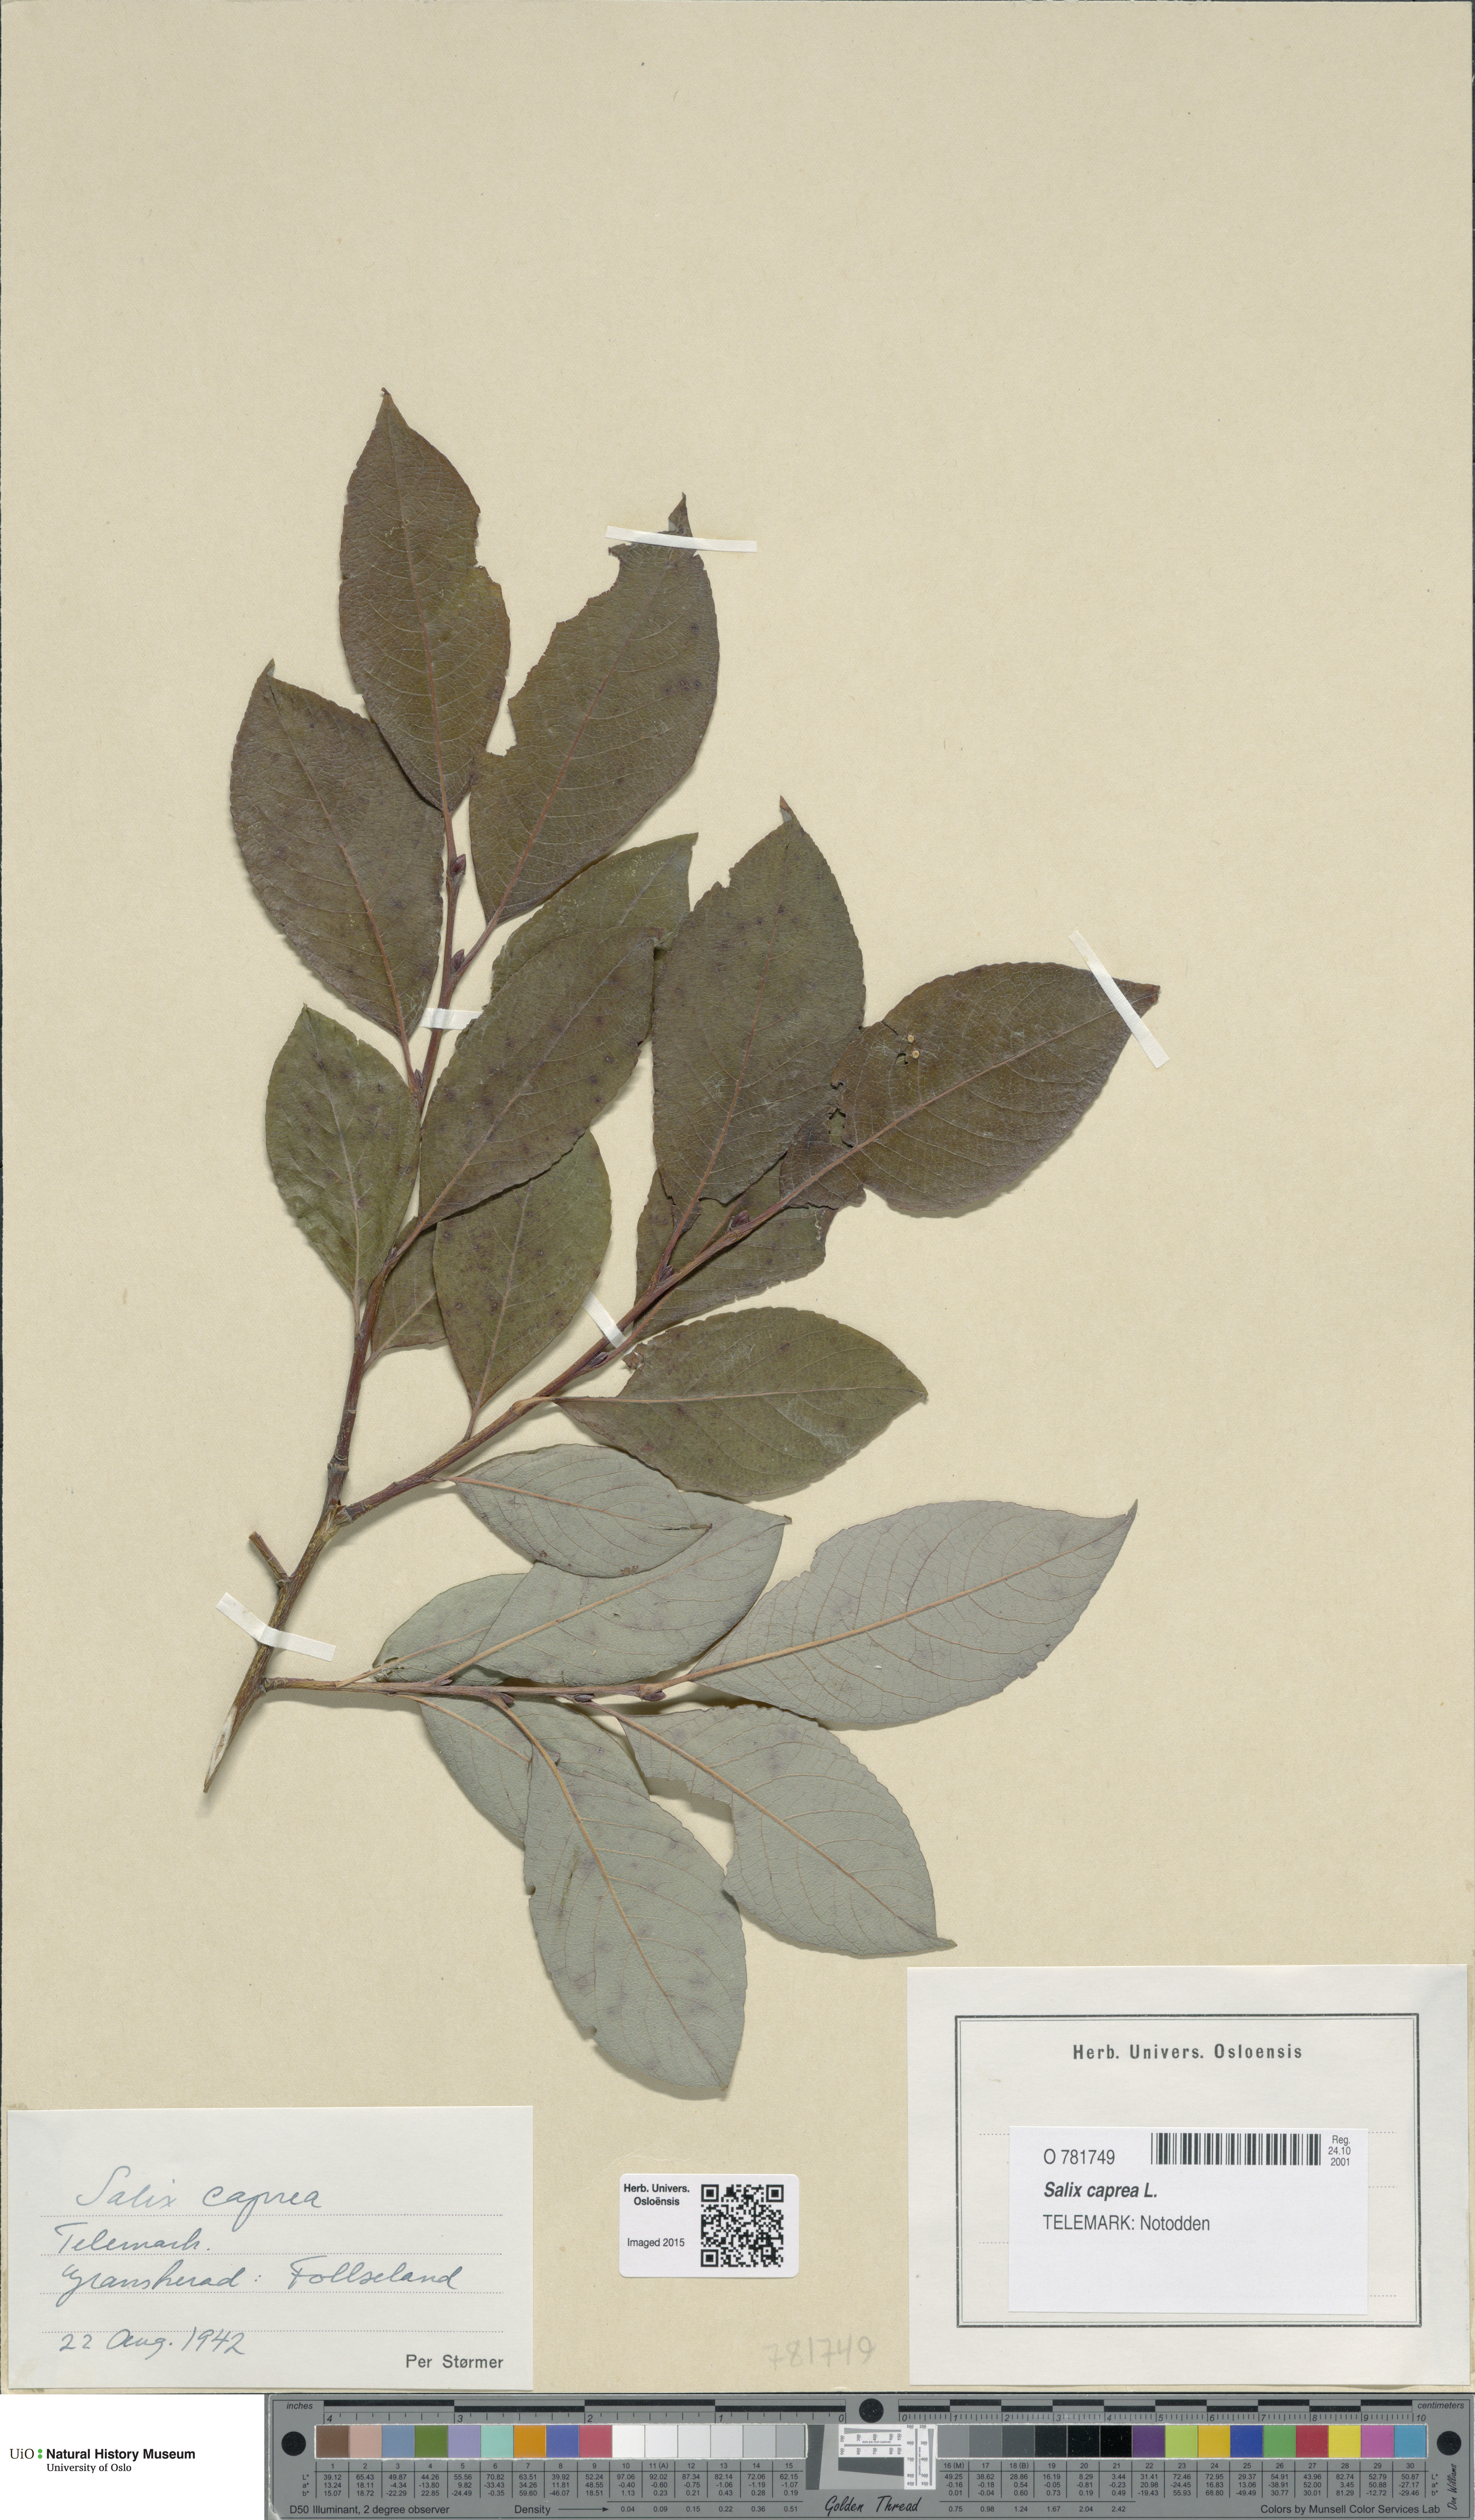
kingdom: Plantae
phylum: Tracheophyta
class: Magnoliopsida
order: Malpighiales
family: Salicaceae
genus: Salix
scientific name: Salix caprea
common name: Goat willow
